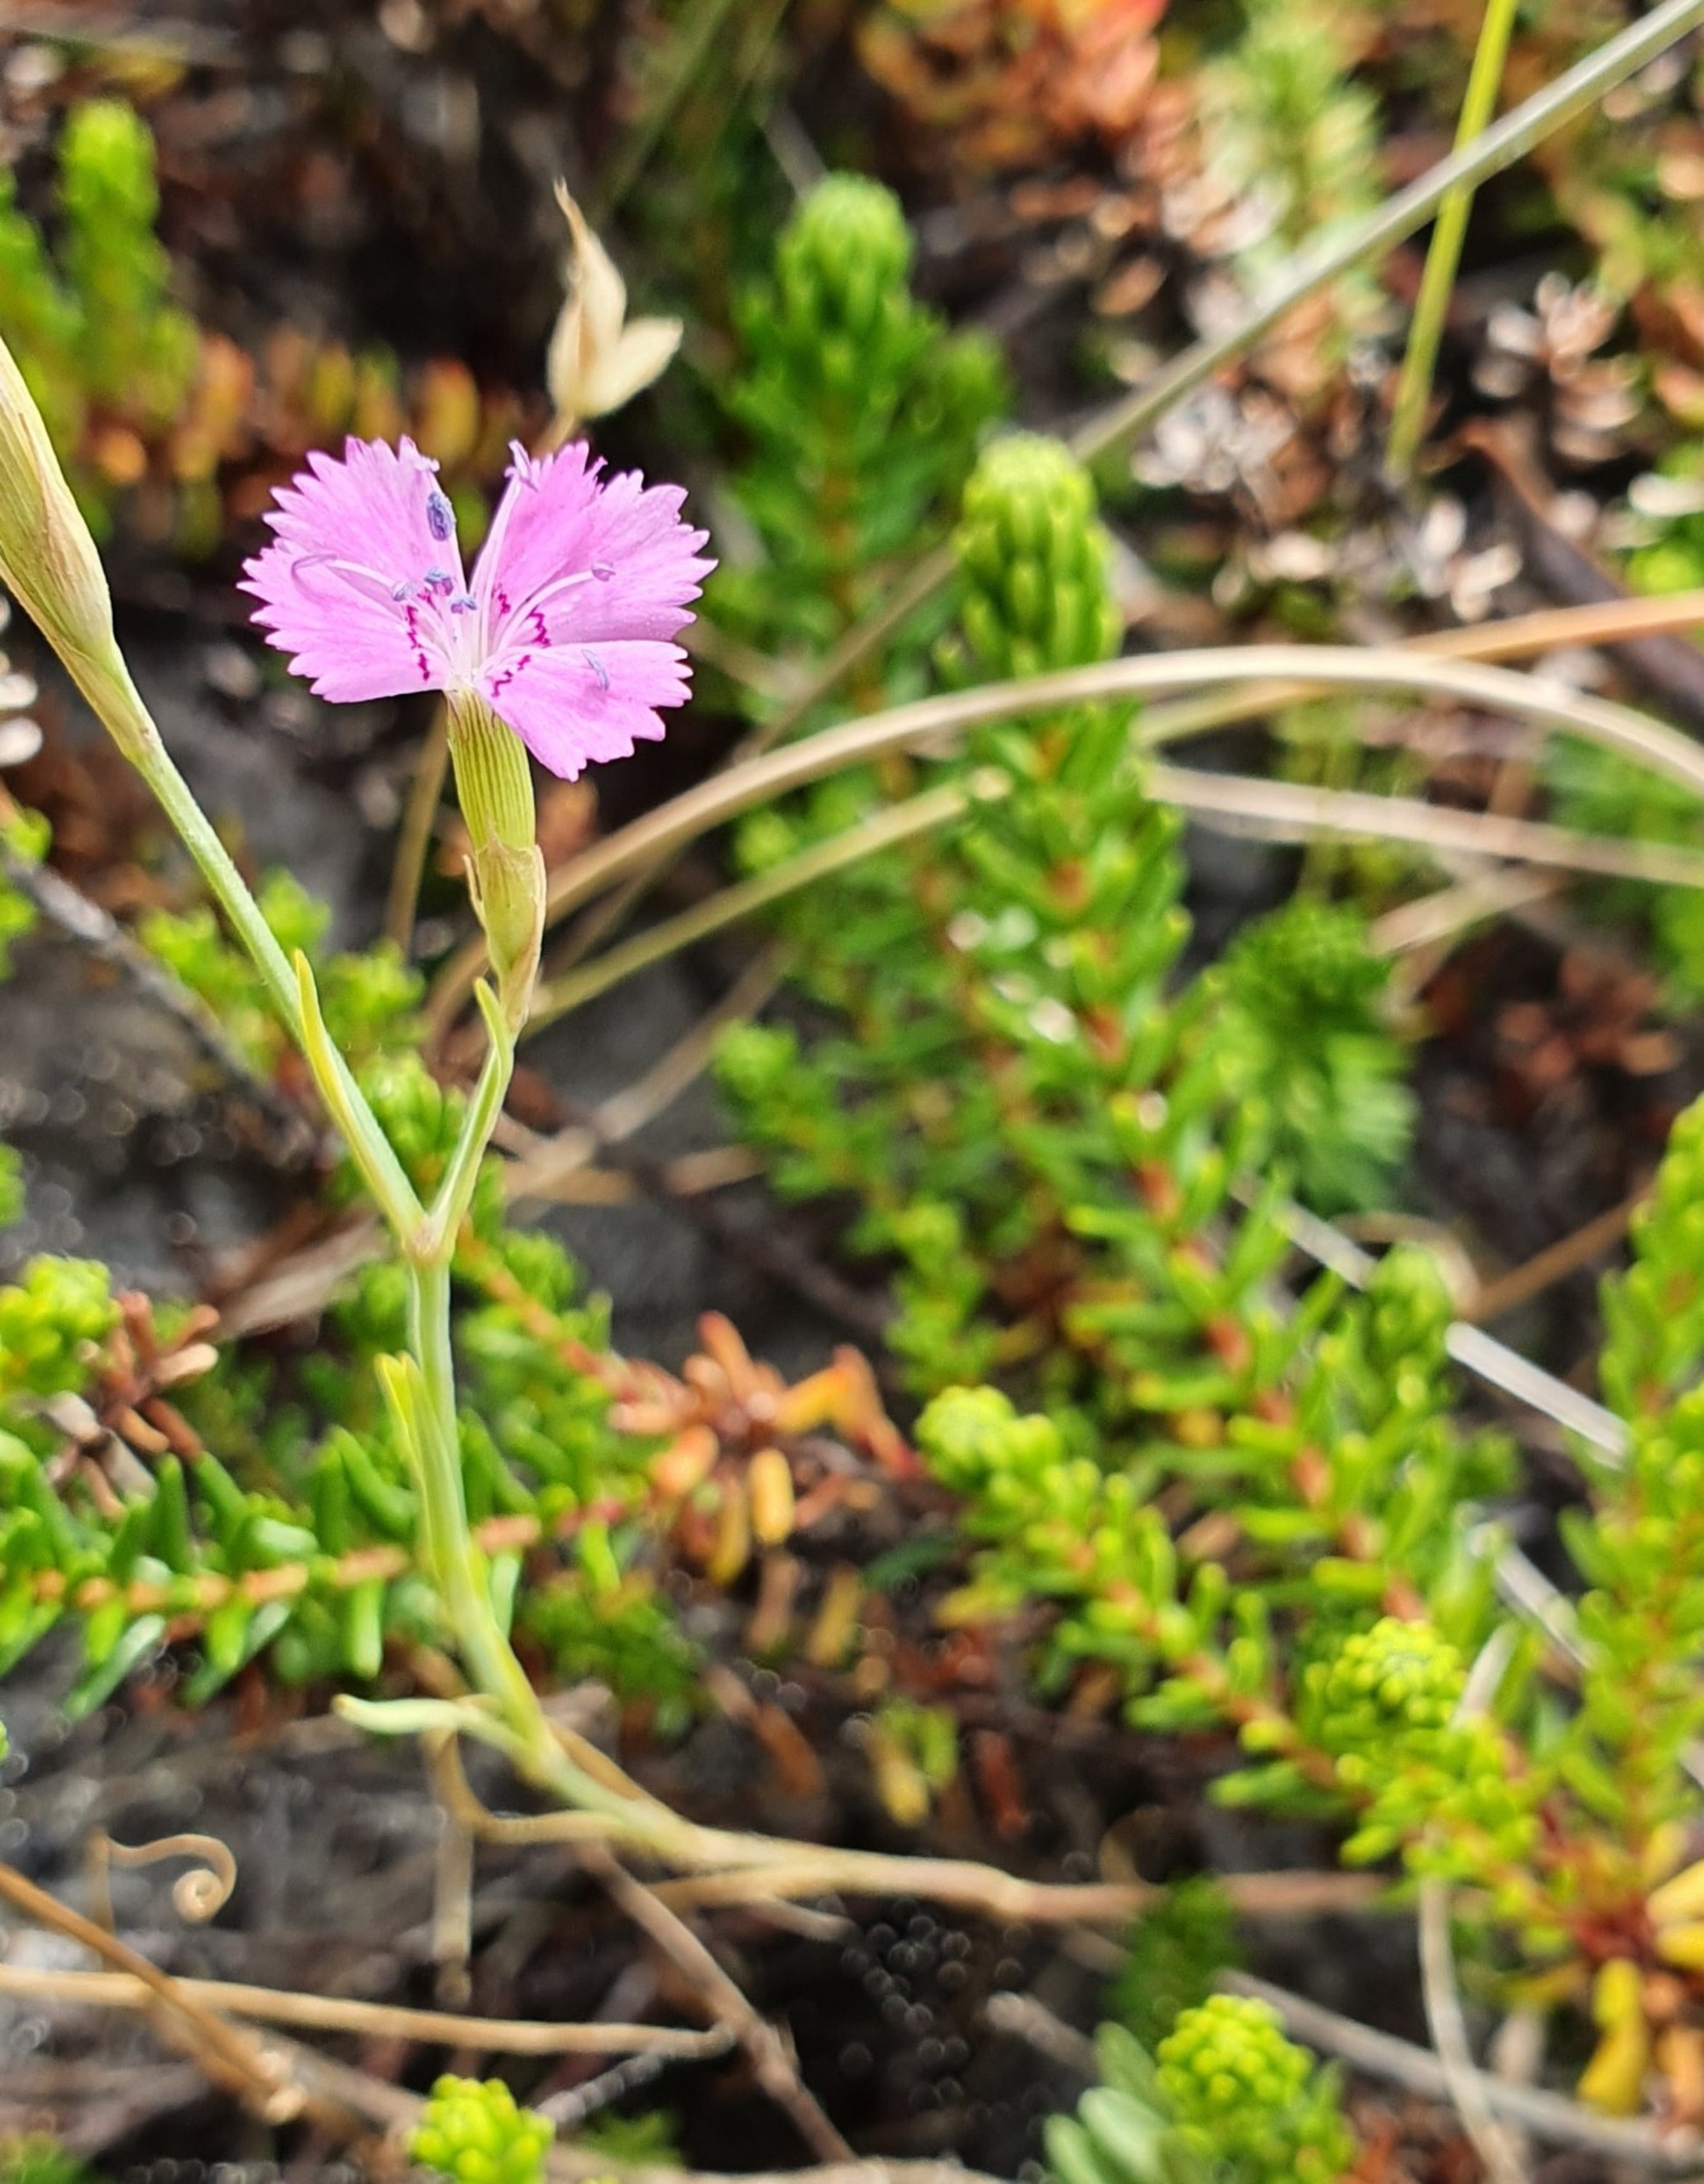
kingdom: Plantae
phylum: Tracheophyta
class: Magnoliopsida
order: Caryophyllales
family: Caryophyllaceae
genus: Dianthus
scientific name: Dianthus deltoides
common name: Bakke-nellike
